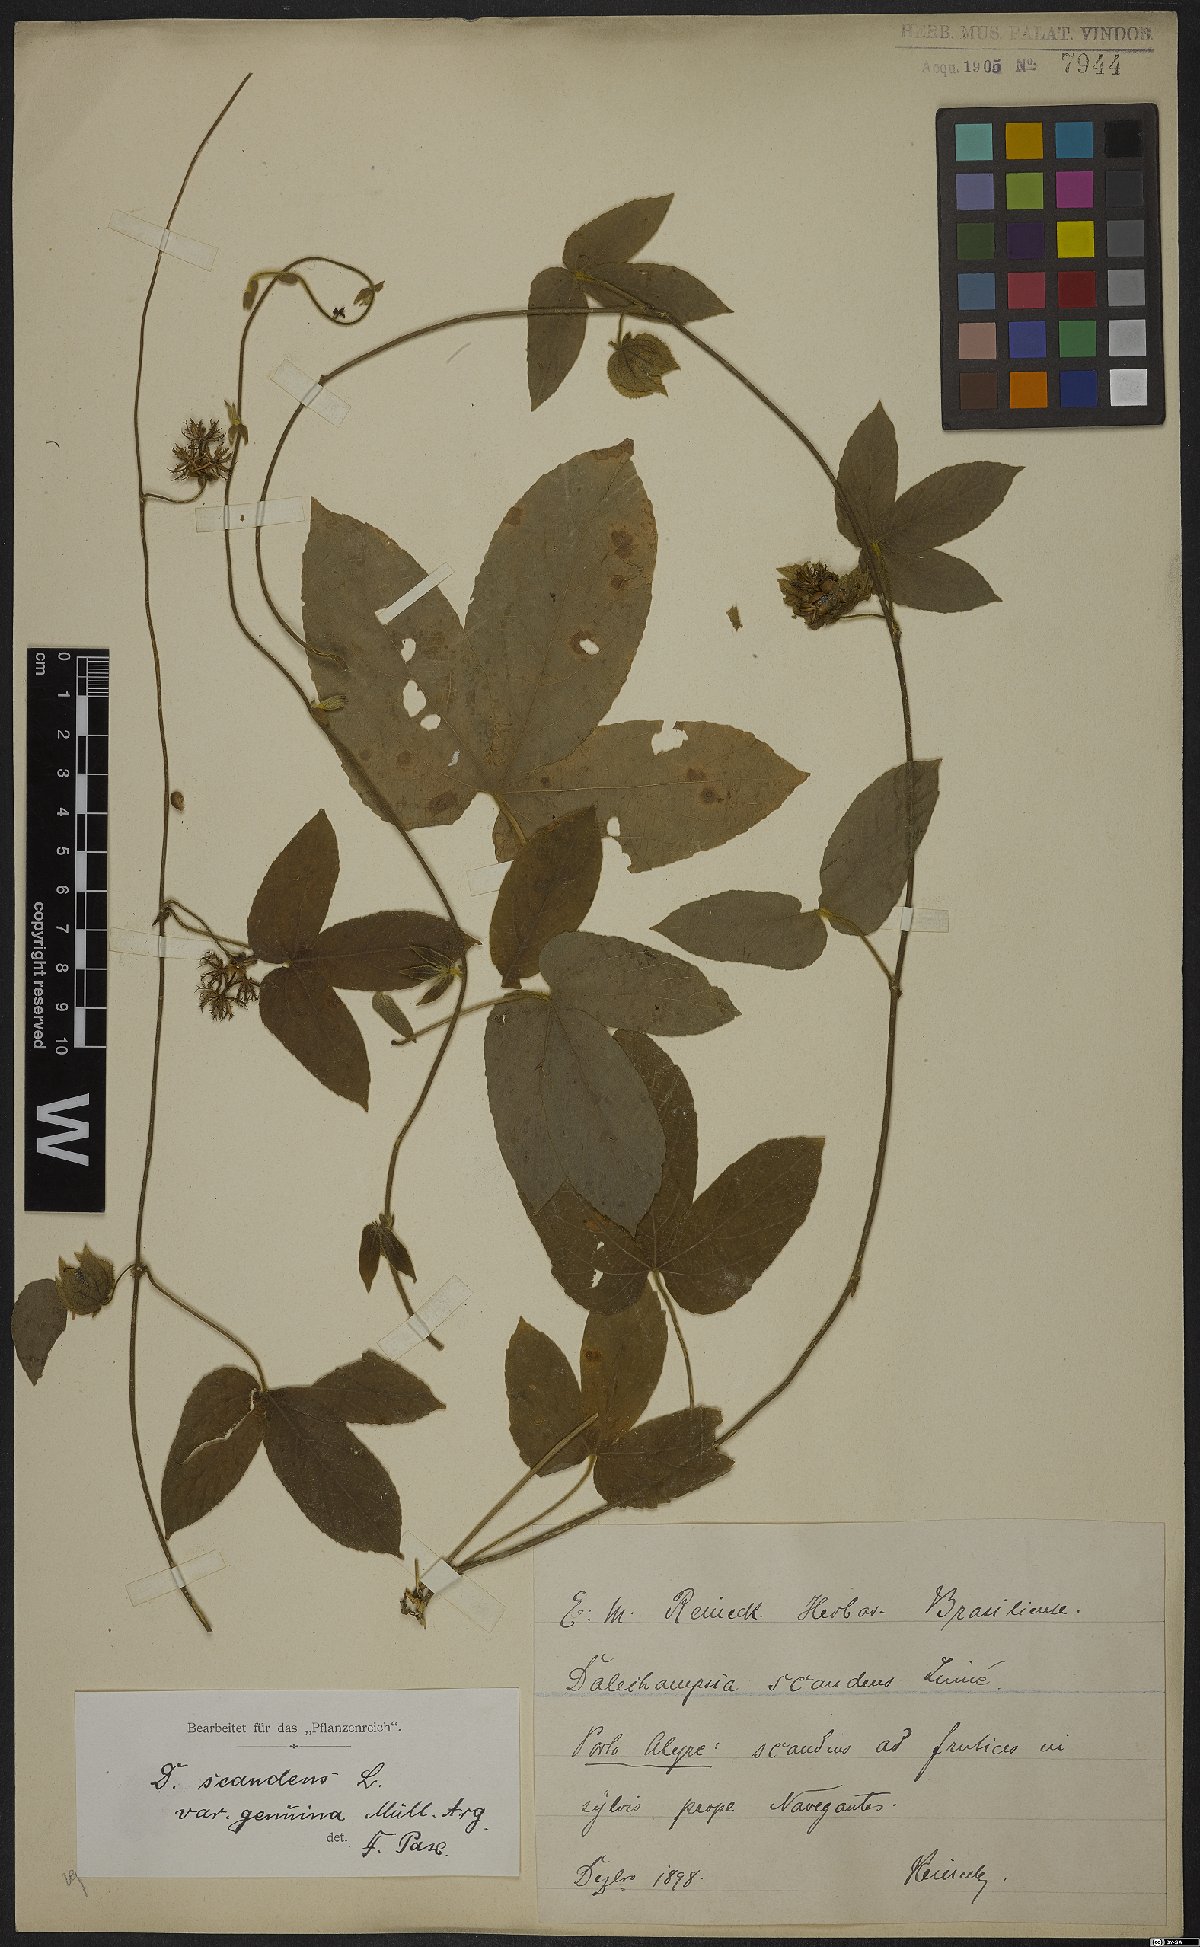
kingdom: Plantae
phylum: Tracheophyta
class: Magnoliopsida
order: Malpighiales
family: Euphorbiaceae
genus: Dalechampia
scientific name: Dalechampia scandens
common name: Spurgecreeper
